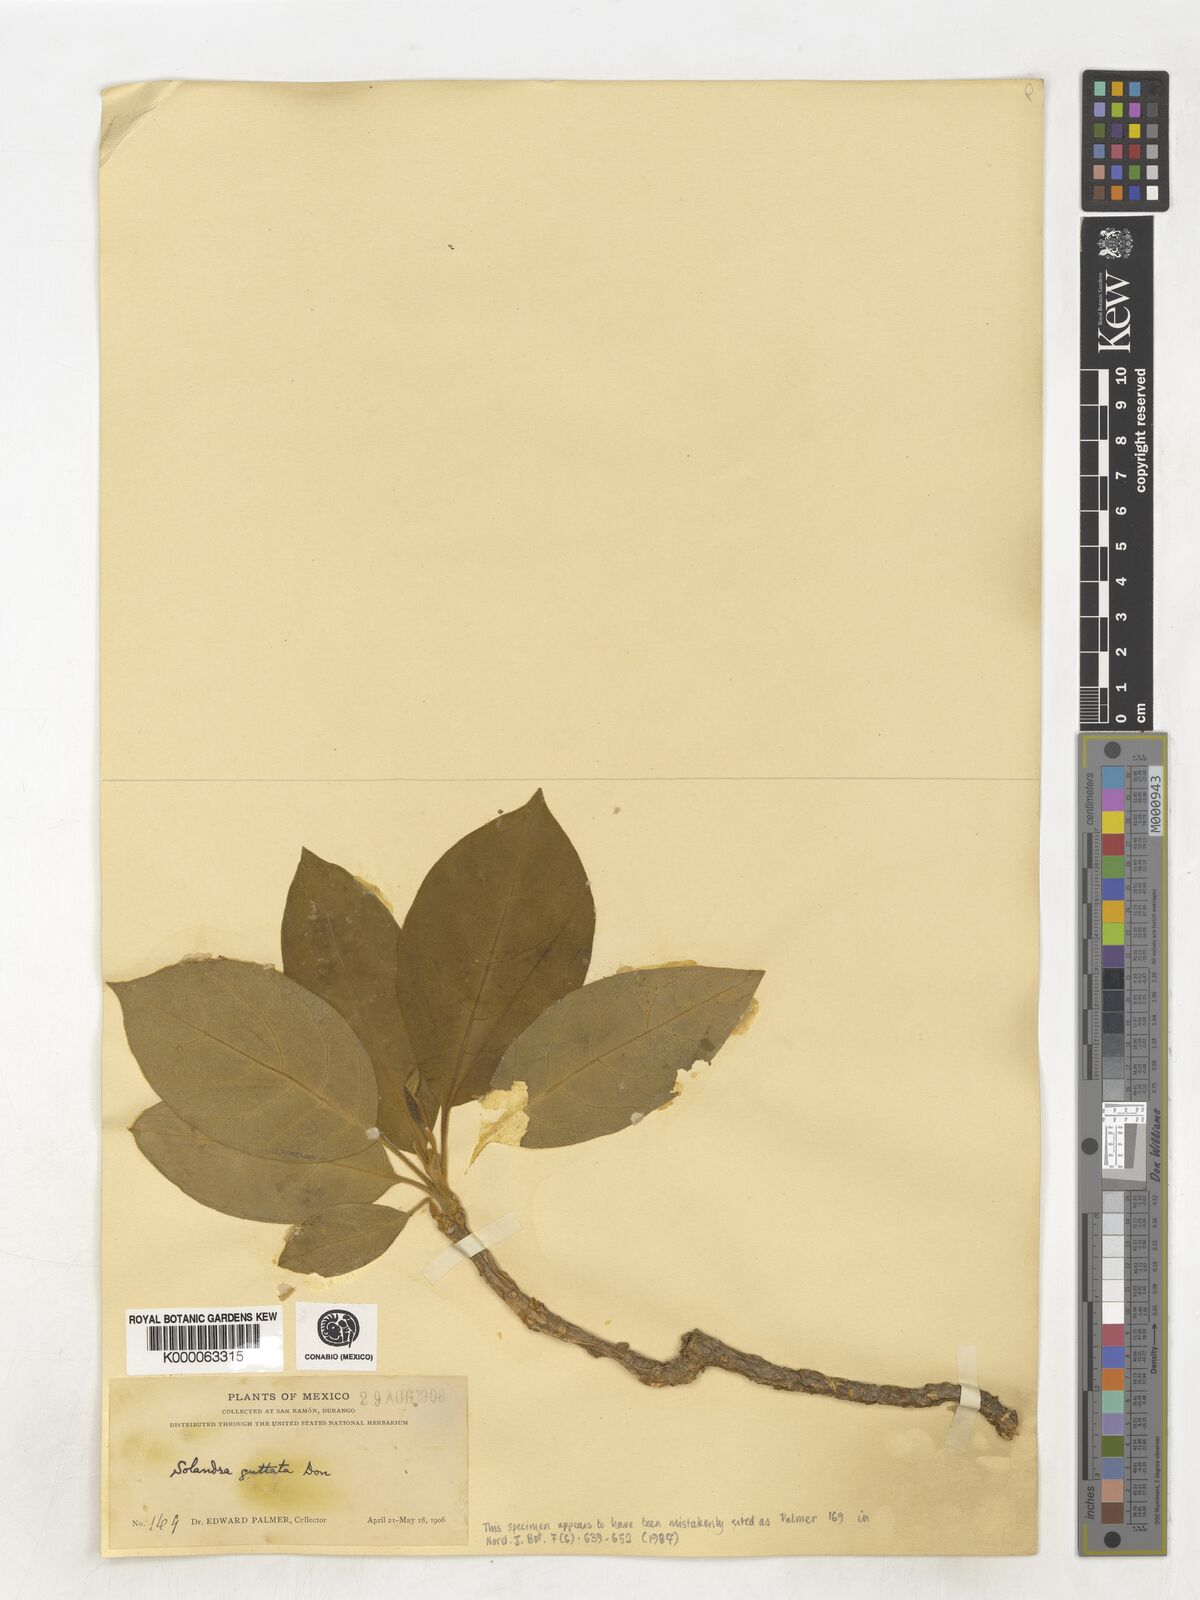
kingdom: Plantae
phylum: Tracheophyta
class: Magnoliopsida
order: Solanales
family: Solanaceae
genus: Solandra
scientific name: Solandra guttata
